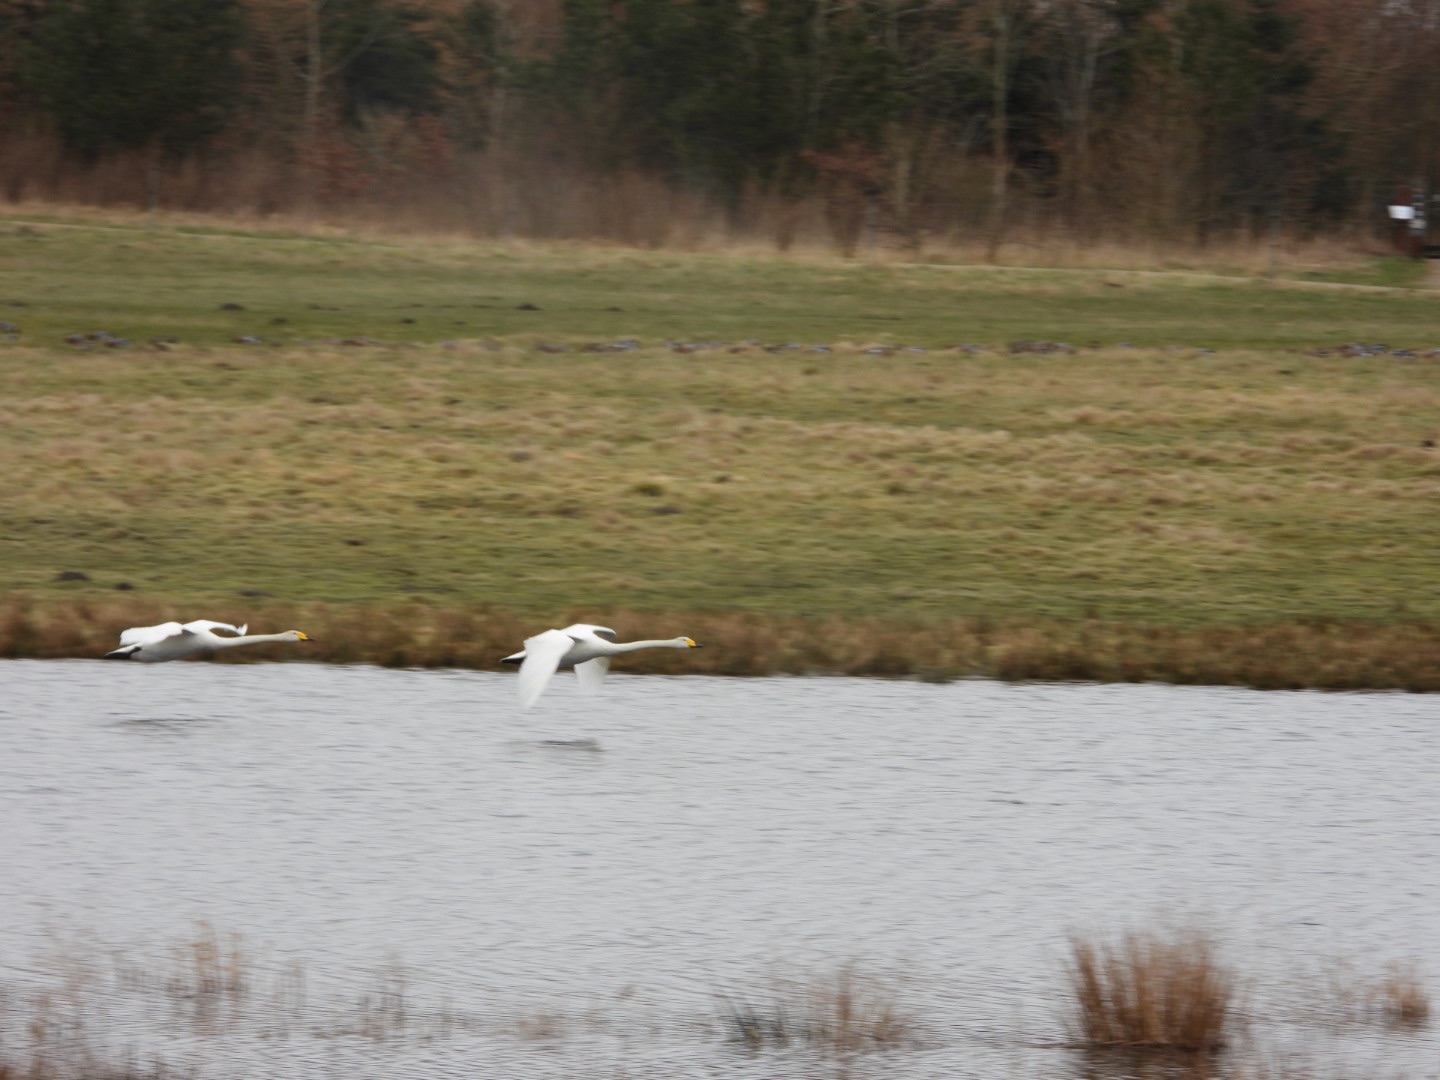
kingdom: Animalia
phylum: Chordata
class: Aves
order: Anseriformes
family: Anatidae
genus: Cygnus
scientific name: Cygnus cygnus
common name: Sangsvane
